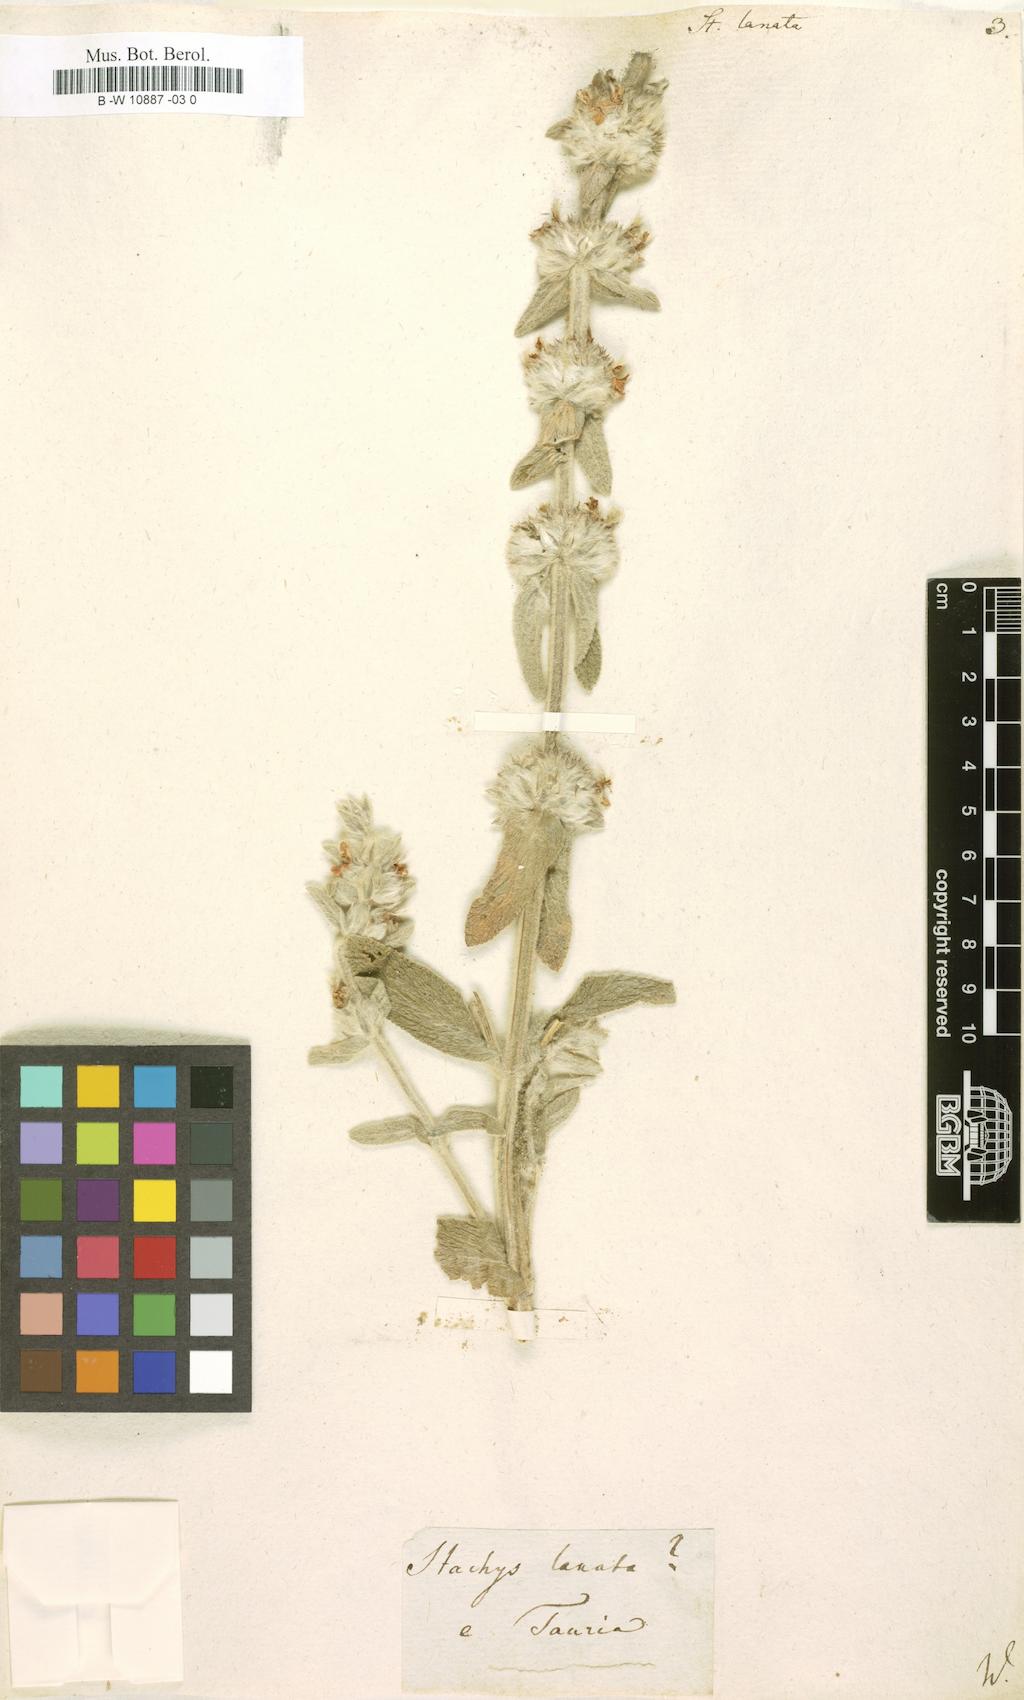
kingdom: Plantae
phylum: Tracheophyta
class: Magnoliopsida
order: Lamiales
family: Lamiaceae
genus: Stachys
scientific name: Stachys germanica
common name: Downy woundwort
